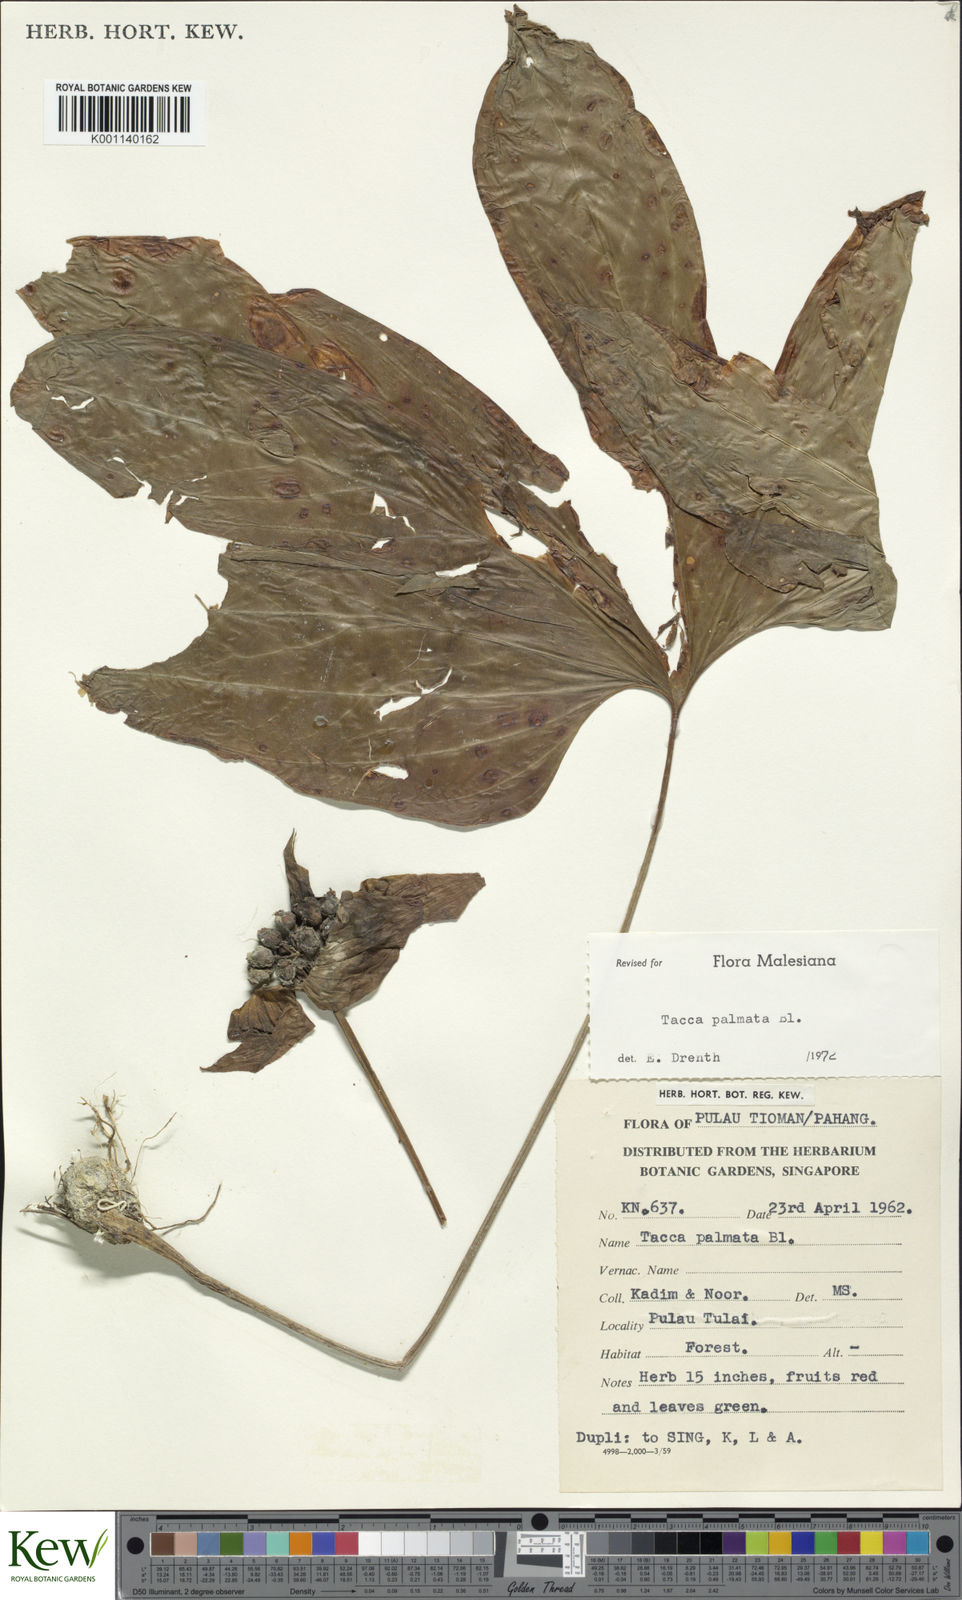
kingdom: Plantae
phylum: Tracheophyta
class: Liliopsida
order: Dioscoreales
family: Dioscoreaceae
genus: Tacca
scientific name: Tacca palmata
